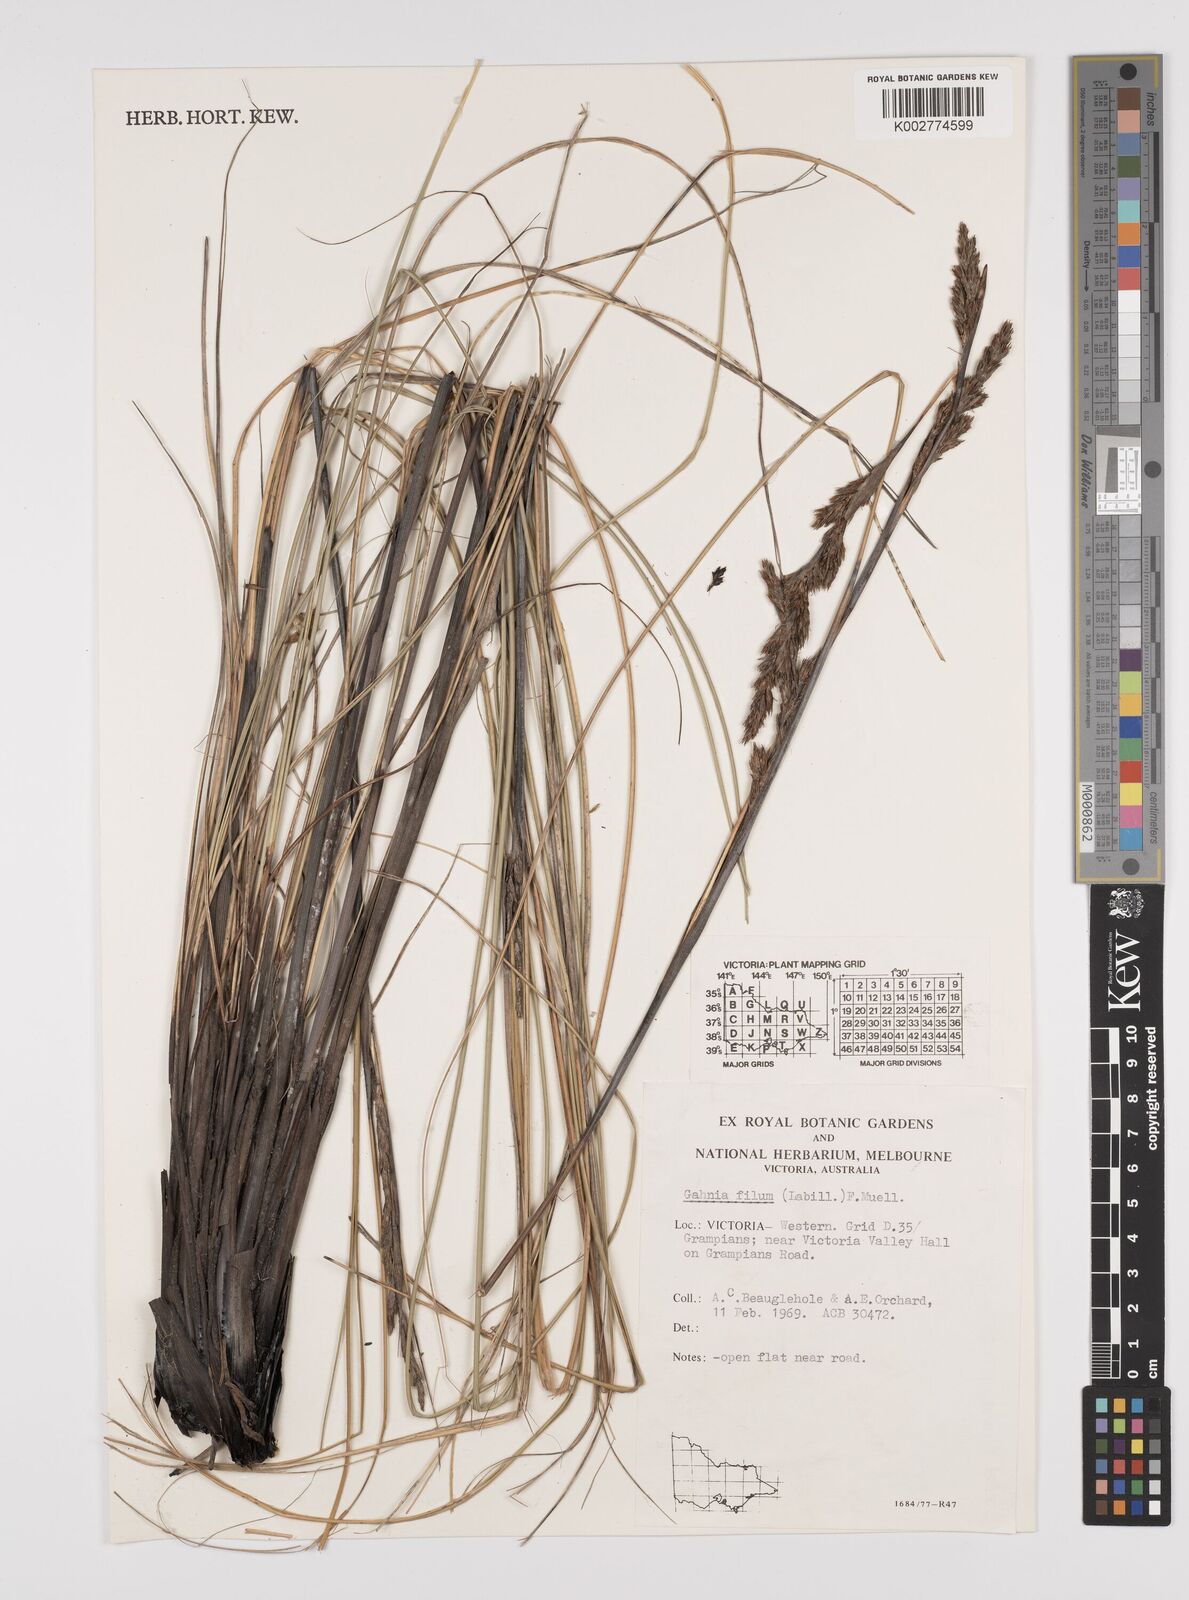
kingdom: Plantae
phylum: Tracheophyta
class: Liliopsida
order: Poales
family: Cyperaceae
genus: Gahnia
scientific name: Gahnia filum
